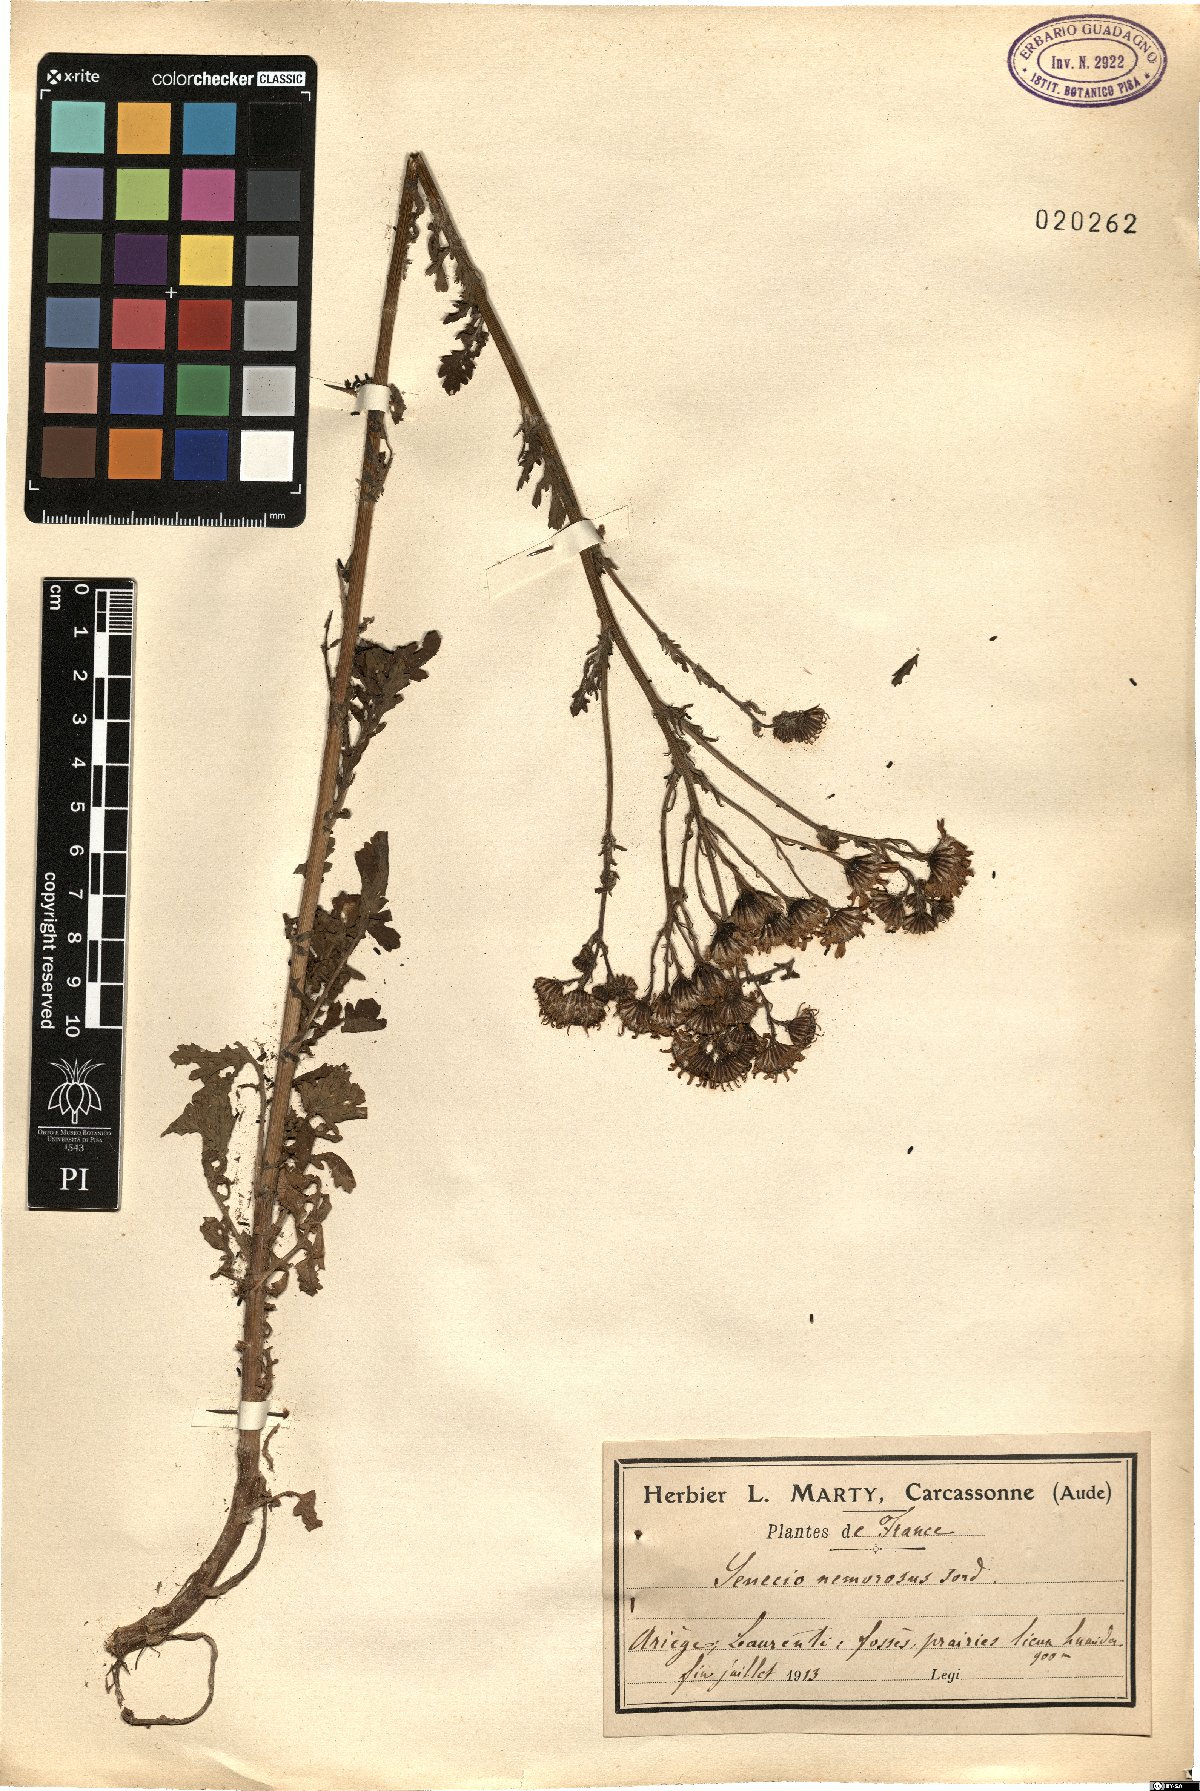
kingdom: Plantae
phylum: Tracheophyta
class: Magnoliopsida
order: Asterales
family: Asteraceae
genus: Jacobaea
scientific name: Jacobaea vulgaris
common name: Stinking willie
